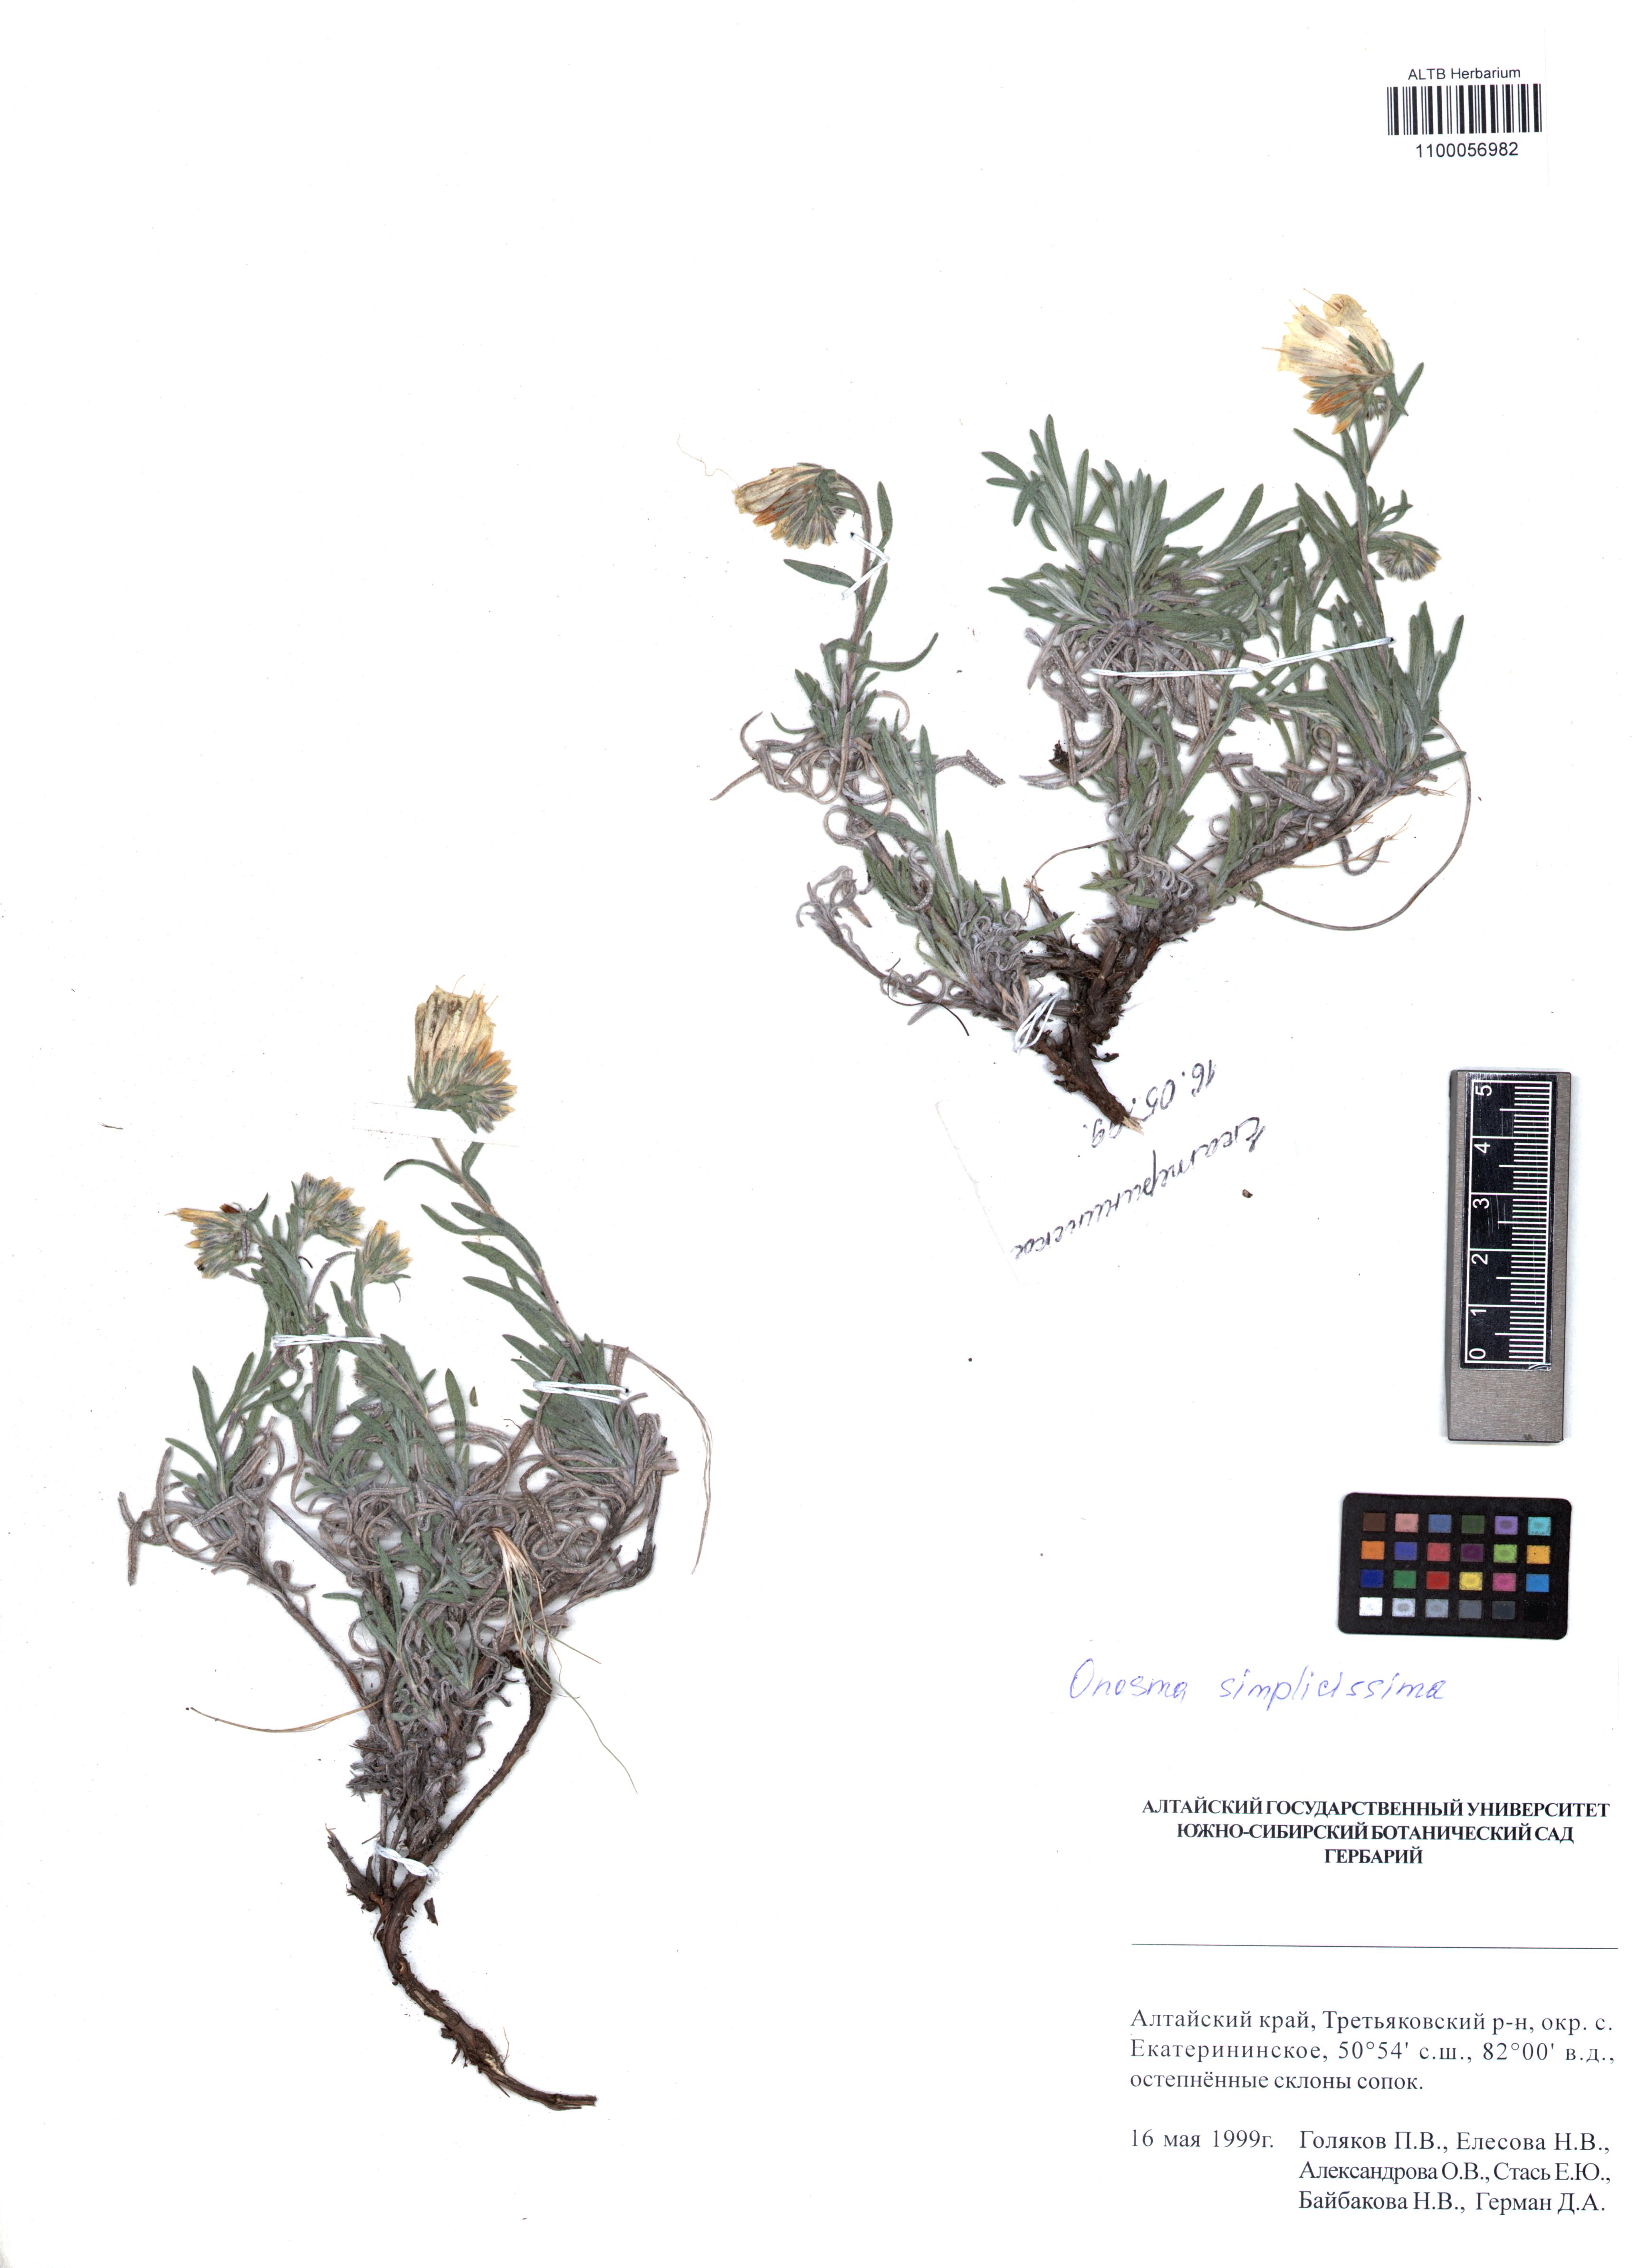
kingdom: Plantae
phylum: Tracheophyta
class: Magnoliopsida
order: Boraginales
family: Boraginaceae
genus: Onosma
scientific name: Onosma simplicissima
